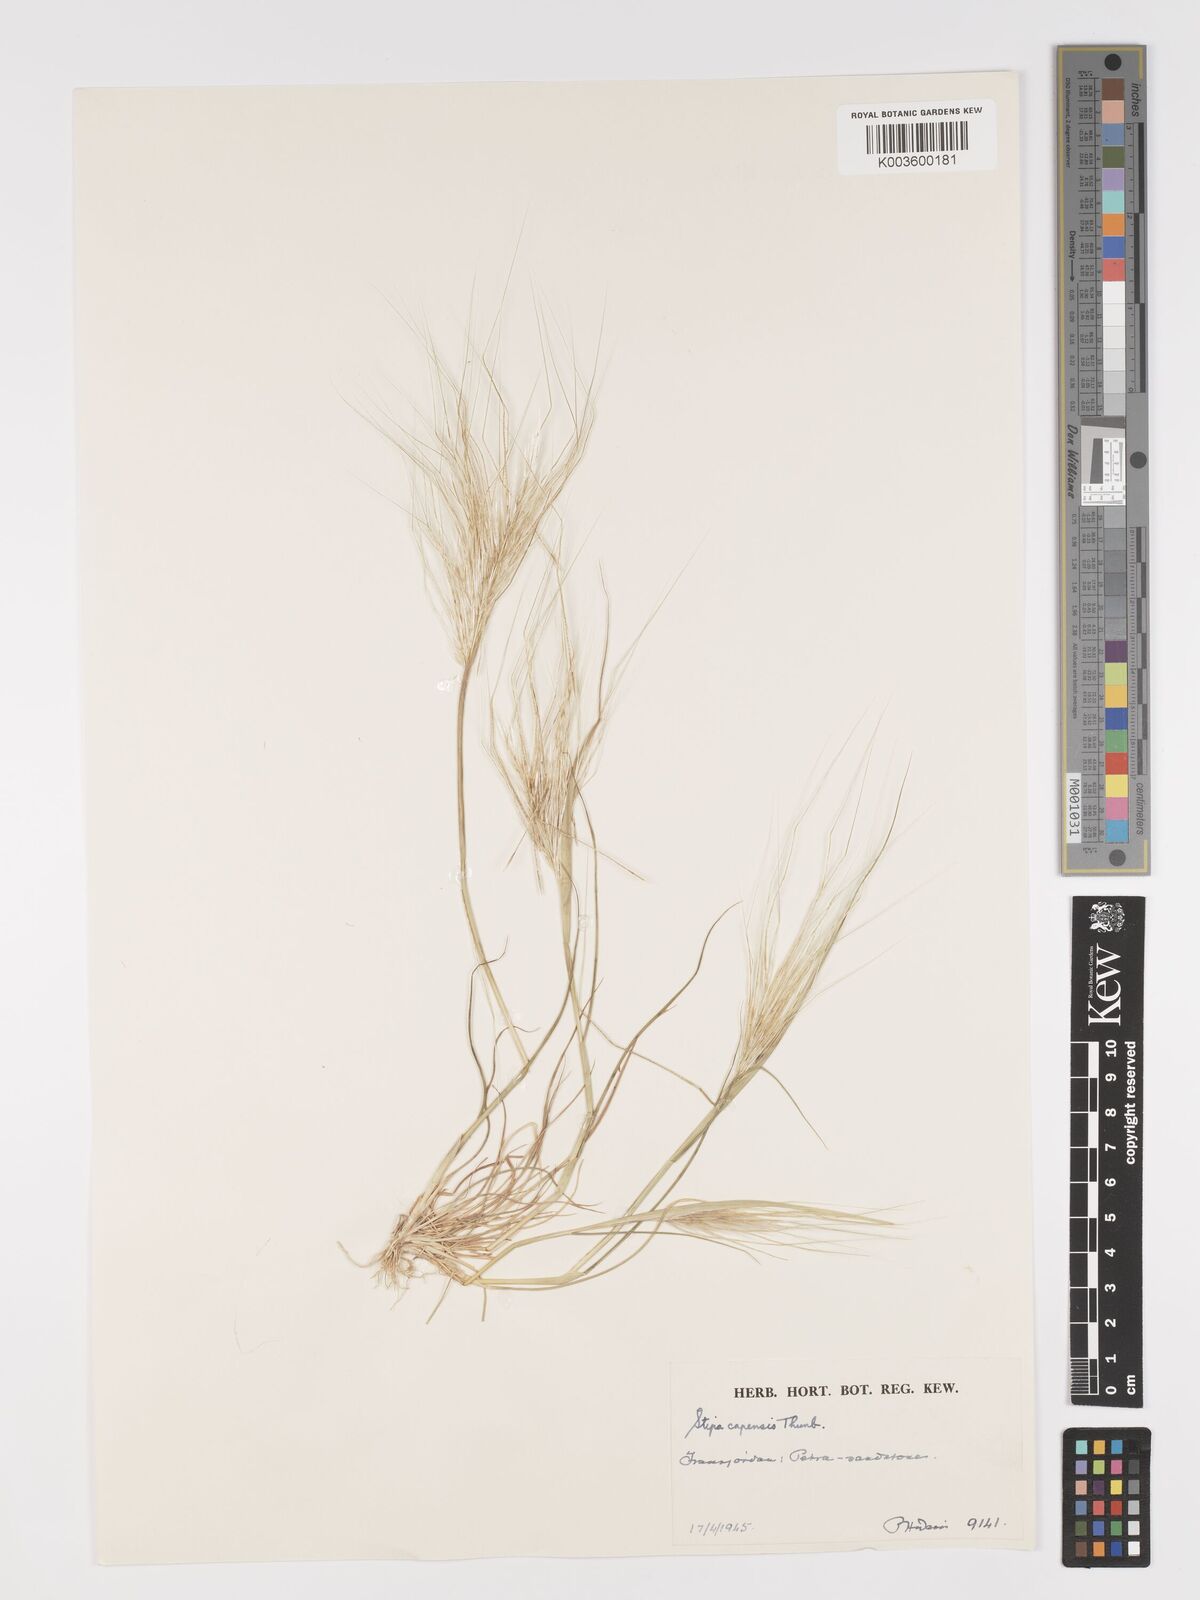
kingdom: Plantae
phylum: Tracheophyta
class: Liliopsida
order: Poales
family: Poaceae
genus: Stipellula
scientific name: Stipellula capensis
